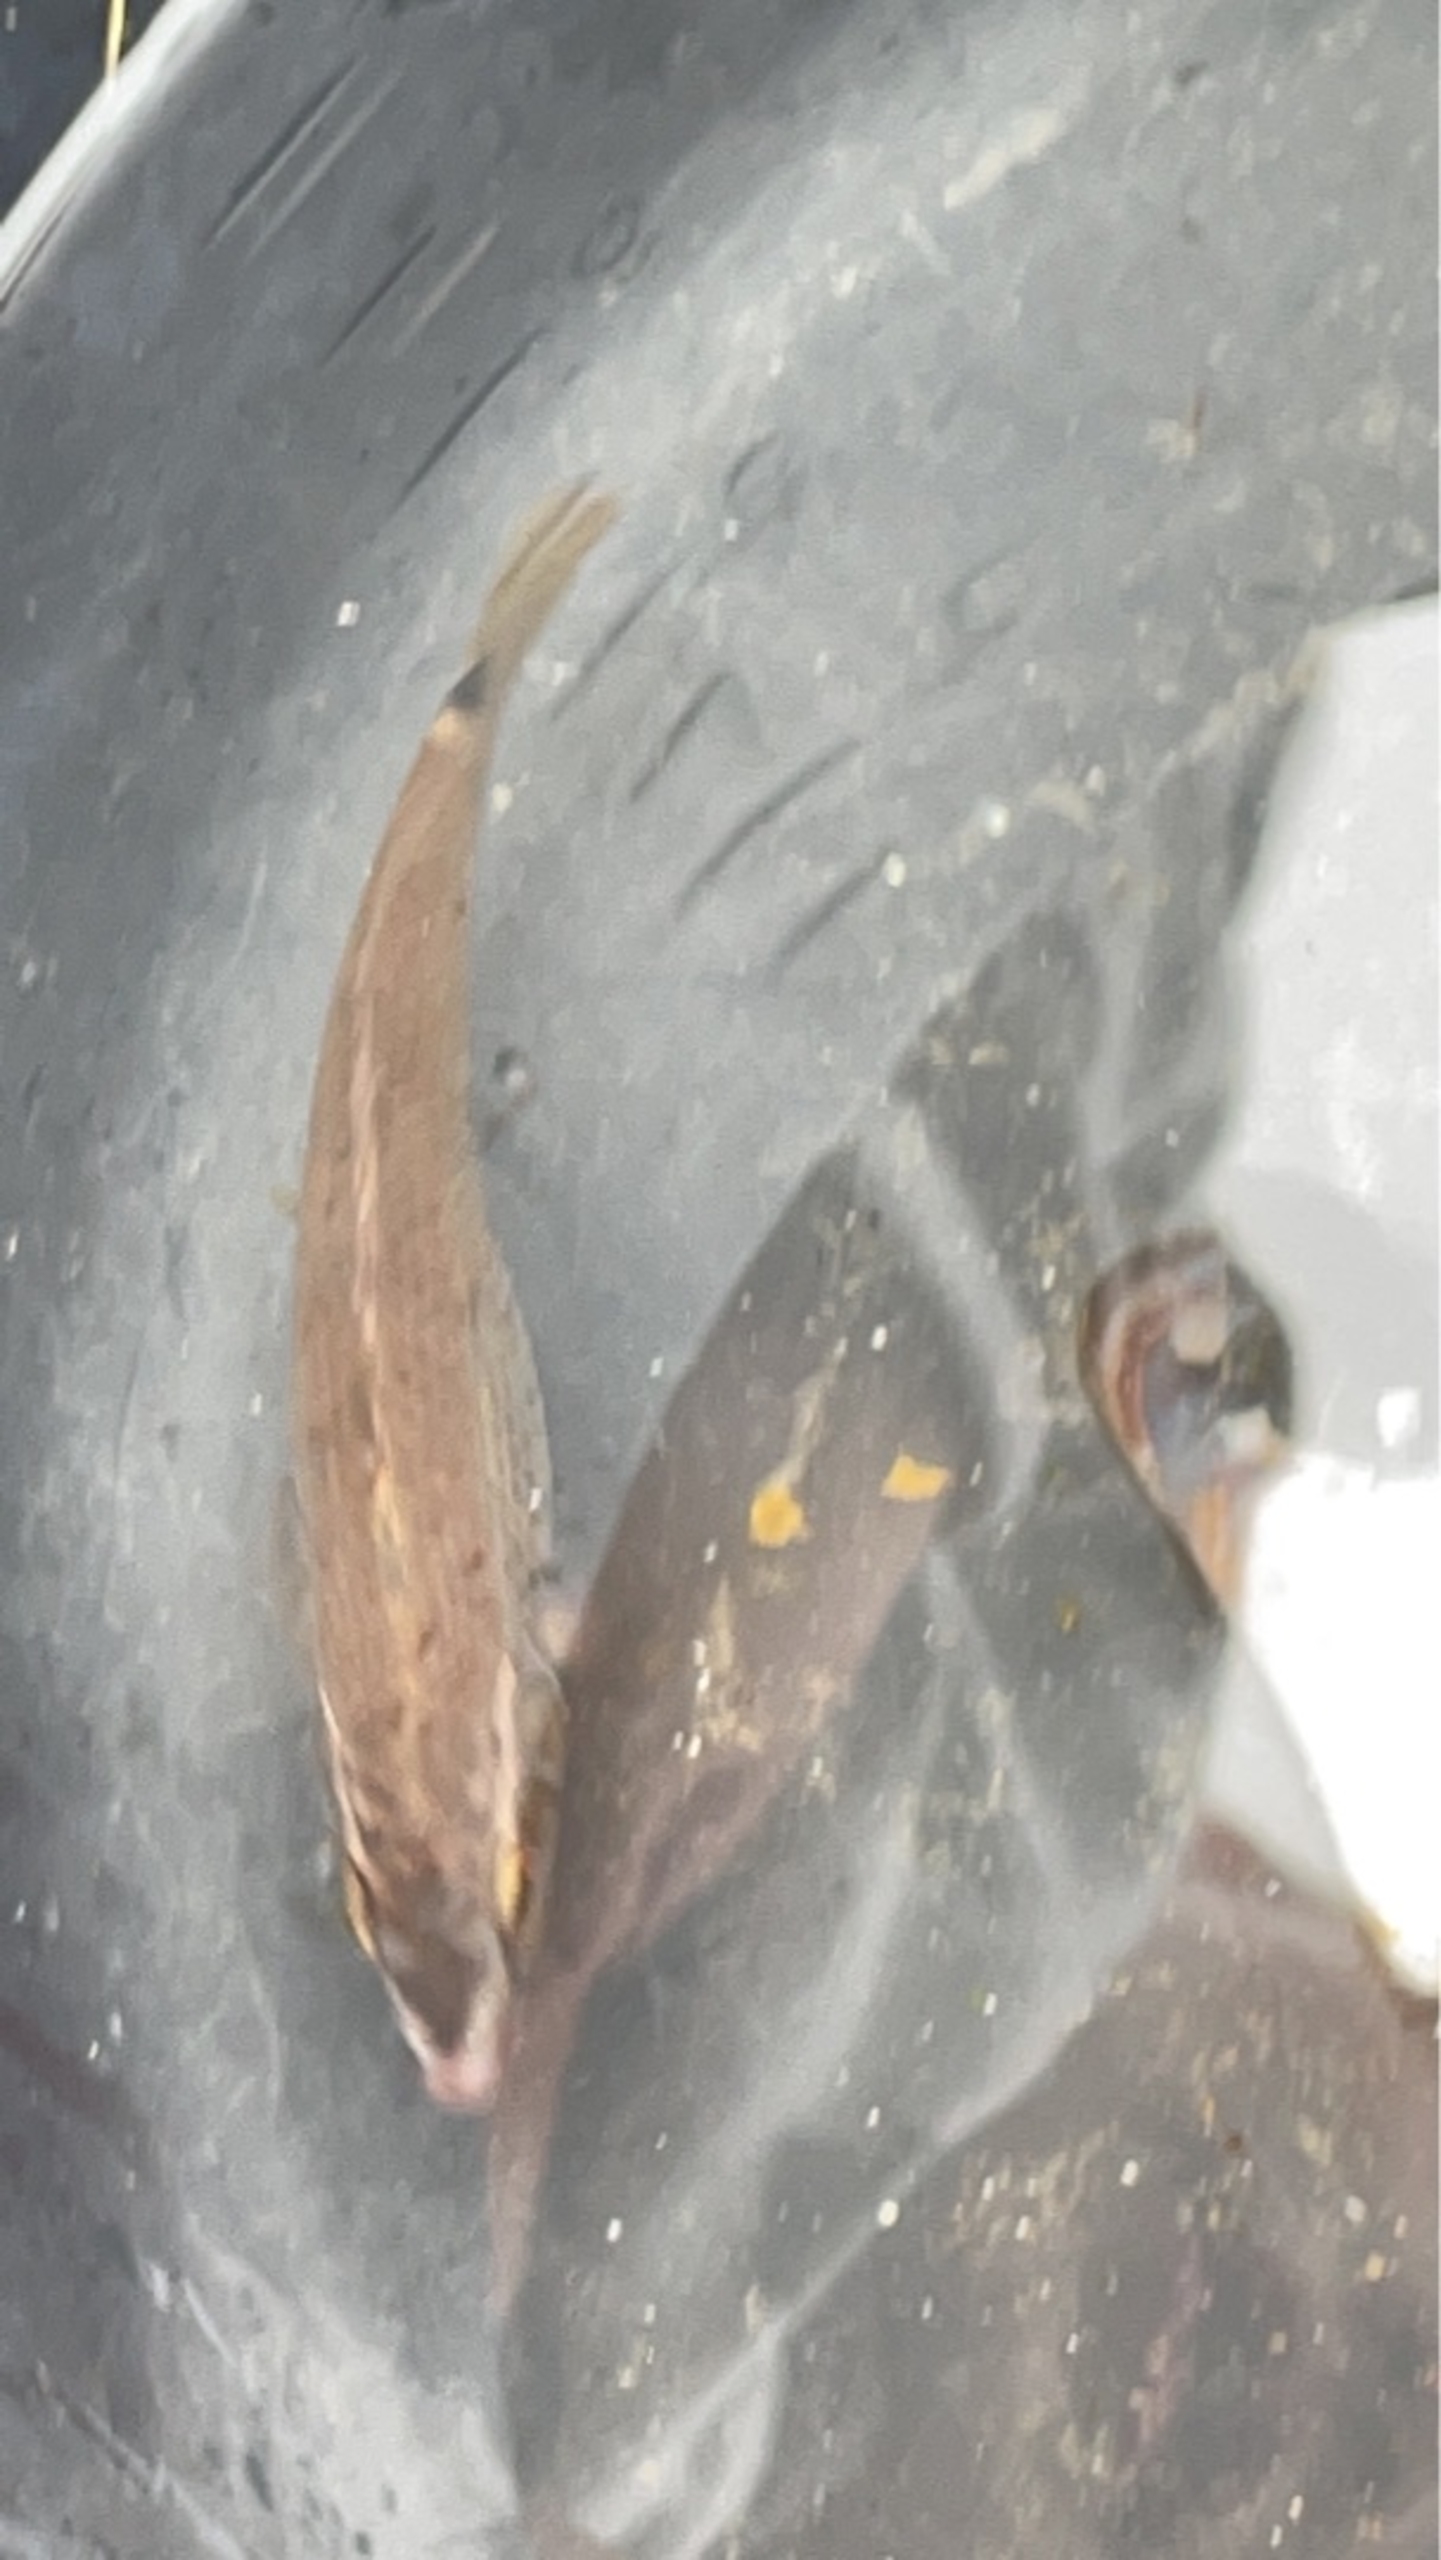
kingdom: Animalia
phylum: Chordata
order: Perciformes
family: Labridae
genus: Ctenolabrus
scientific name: Ctenolabrus rupestris
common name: Havkarusse
